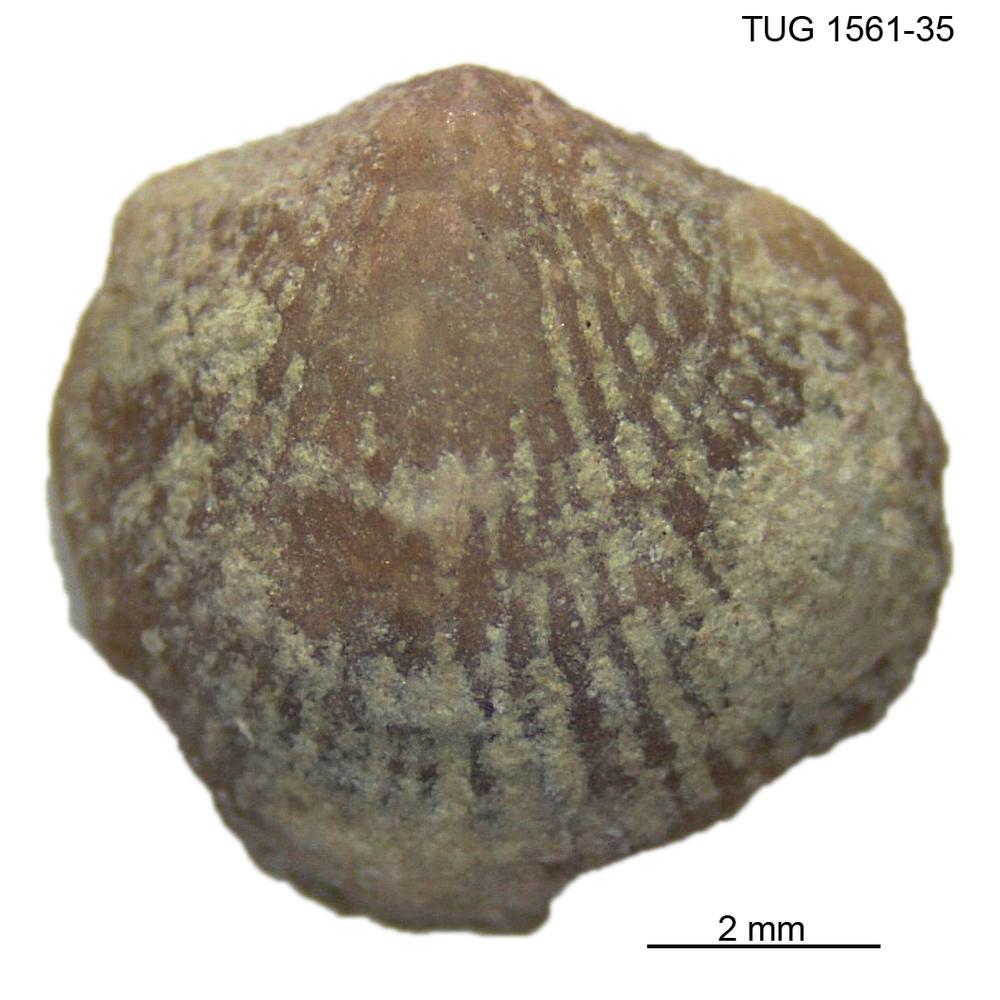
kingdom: Animalia
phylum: Brachiopoda
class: Rhynchonellata
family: Atrypidae
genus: Atrypa
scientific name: Atrypa reticularis
